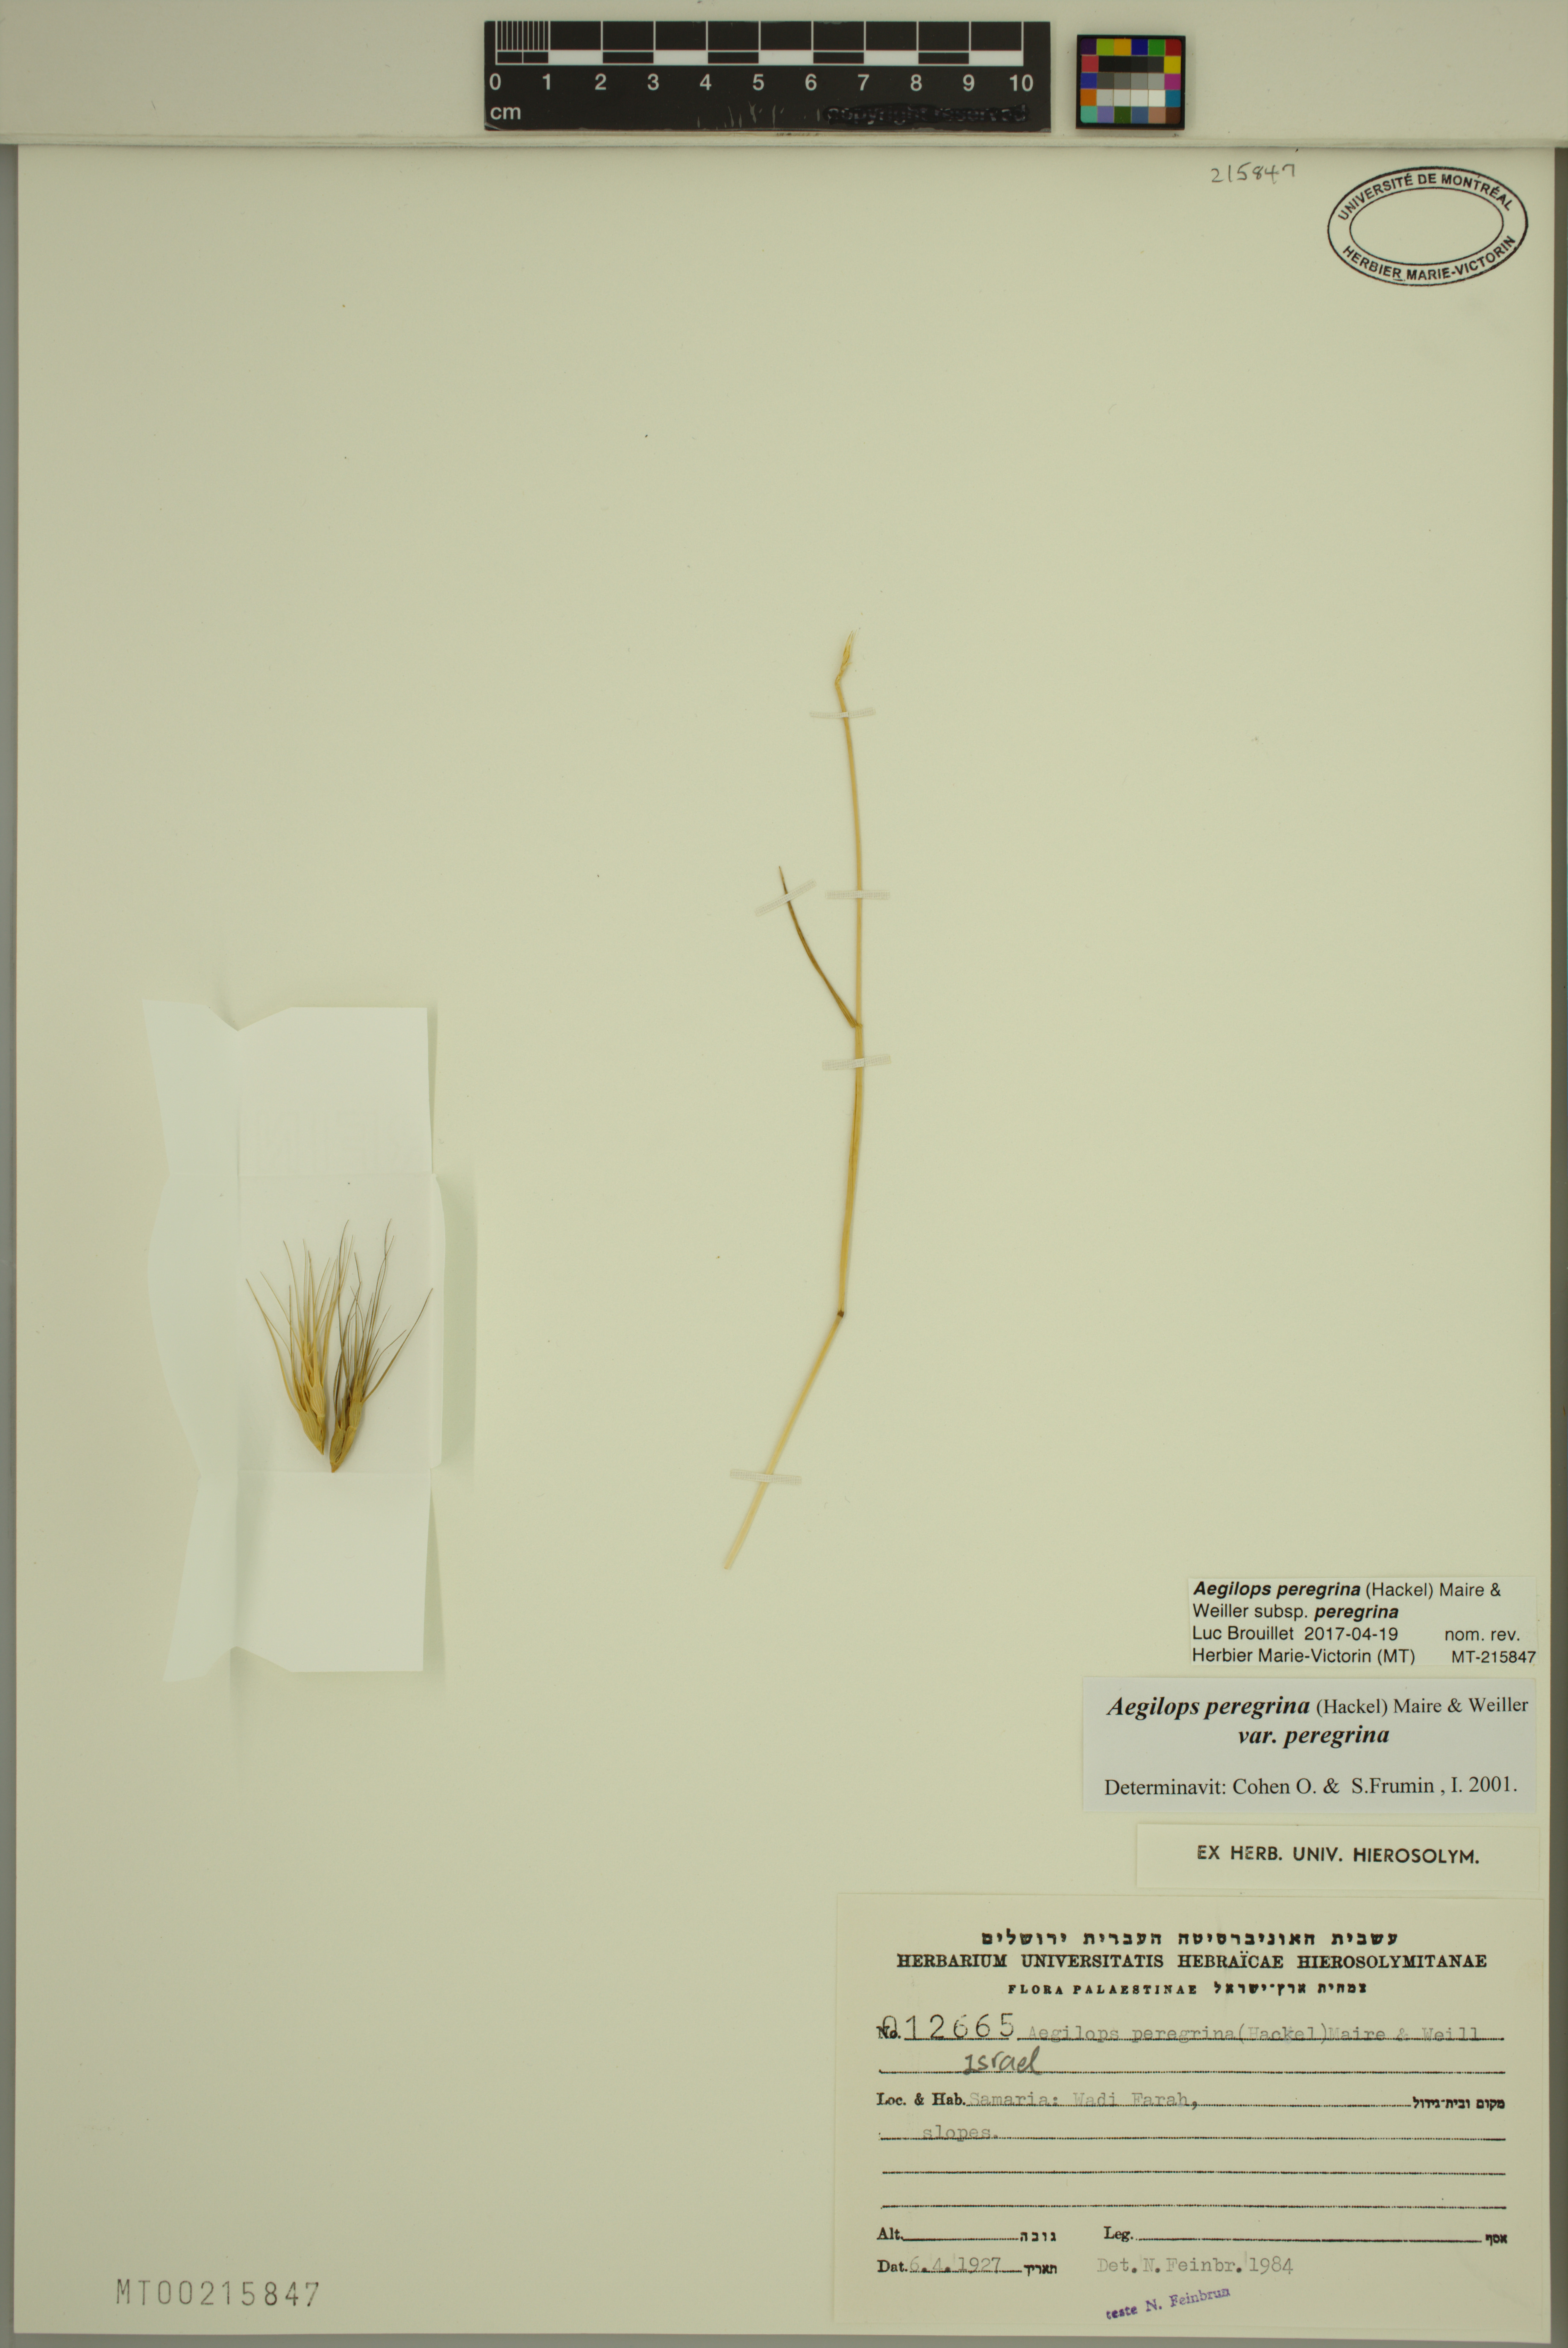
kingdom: Plantae
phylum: Tracheophyta
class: Liliopsida
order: Poales
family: Poaceae
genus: Aegilops
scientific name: Aegilops peregrina
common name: Goatgrass
